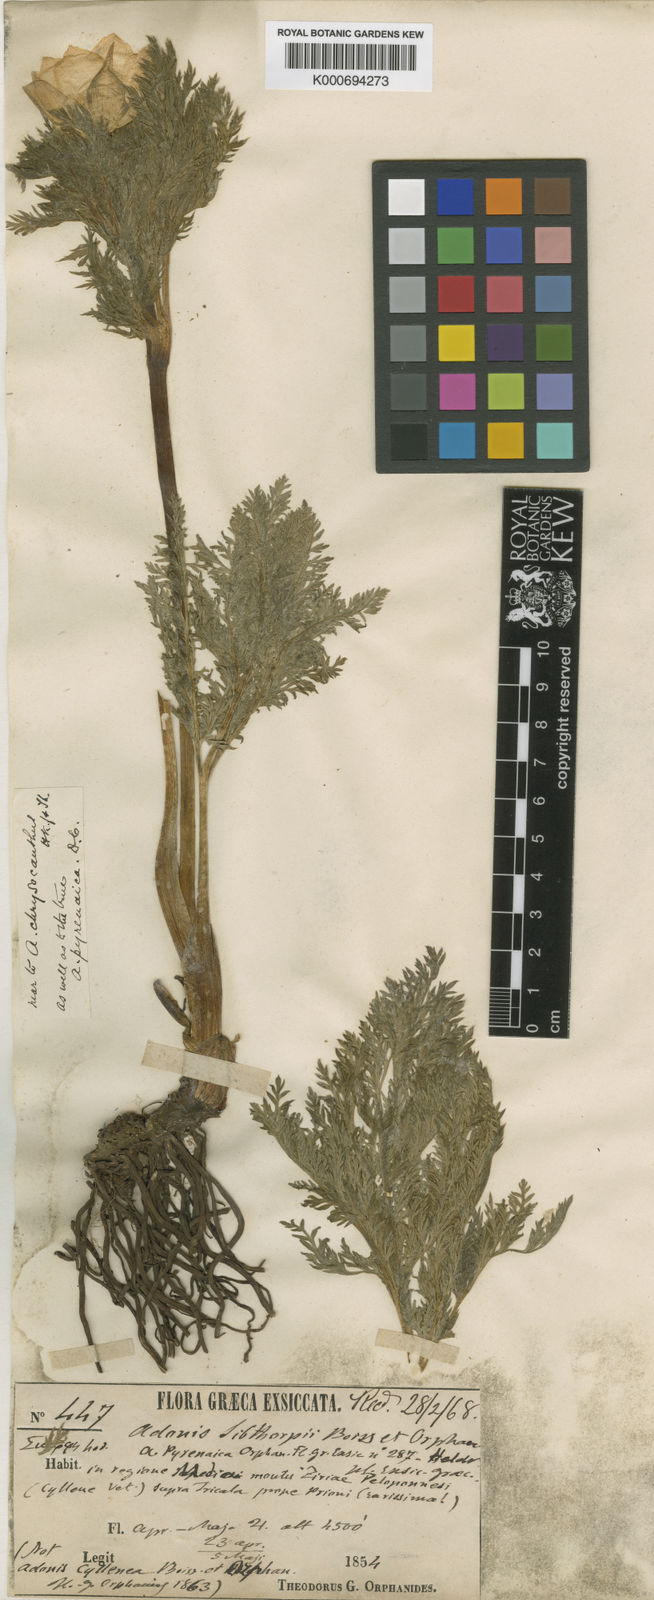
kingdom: Plantae
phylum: Tracheophyta
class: Magnoliopsida
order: Ranunculales
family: Ranunculaceae
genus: Adonis
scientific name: Adonis cyllenea
